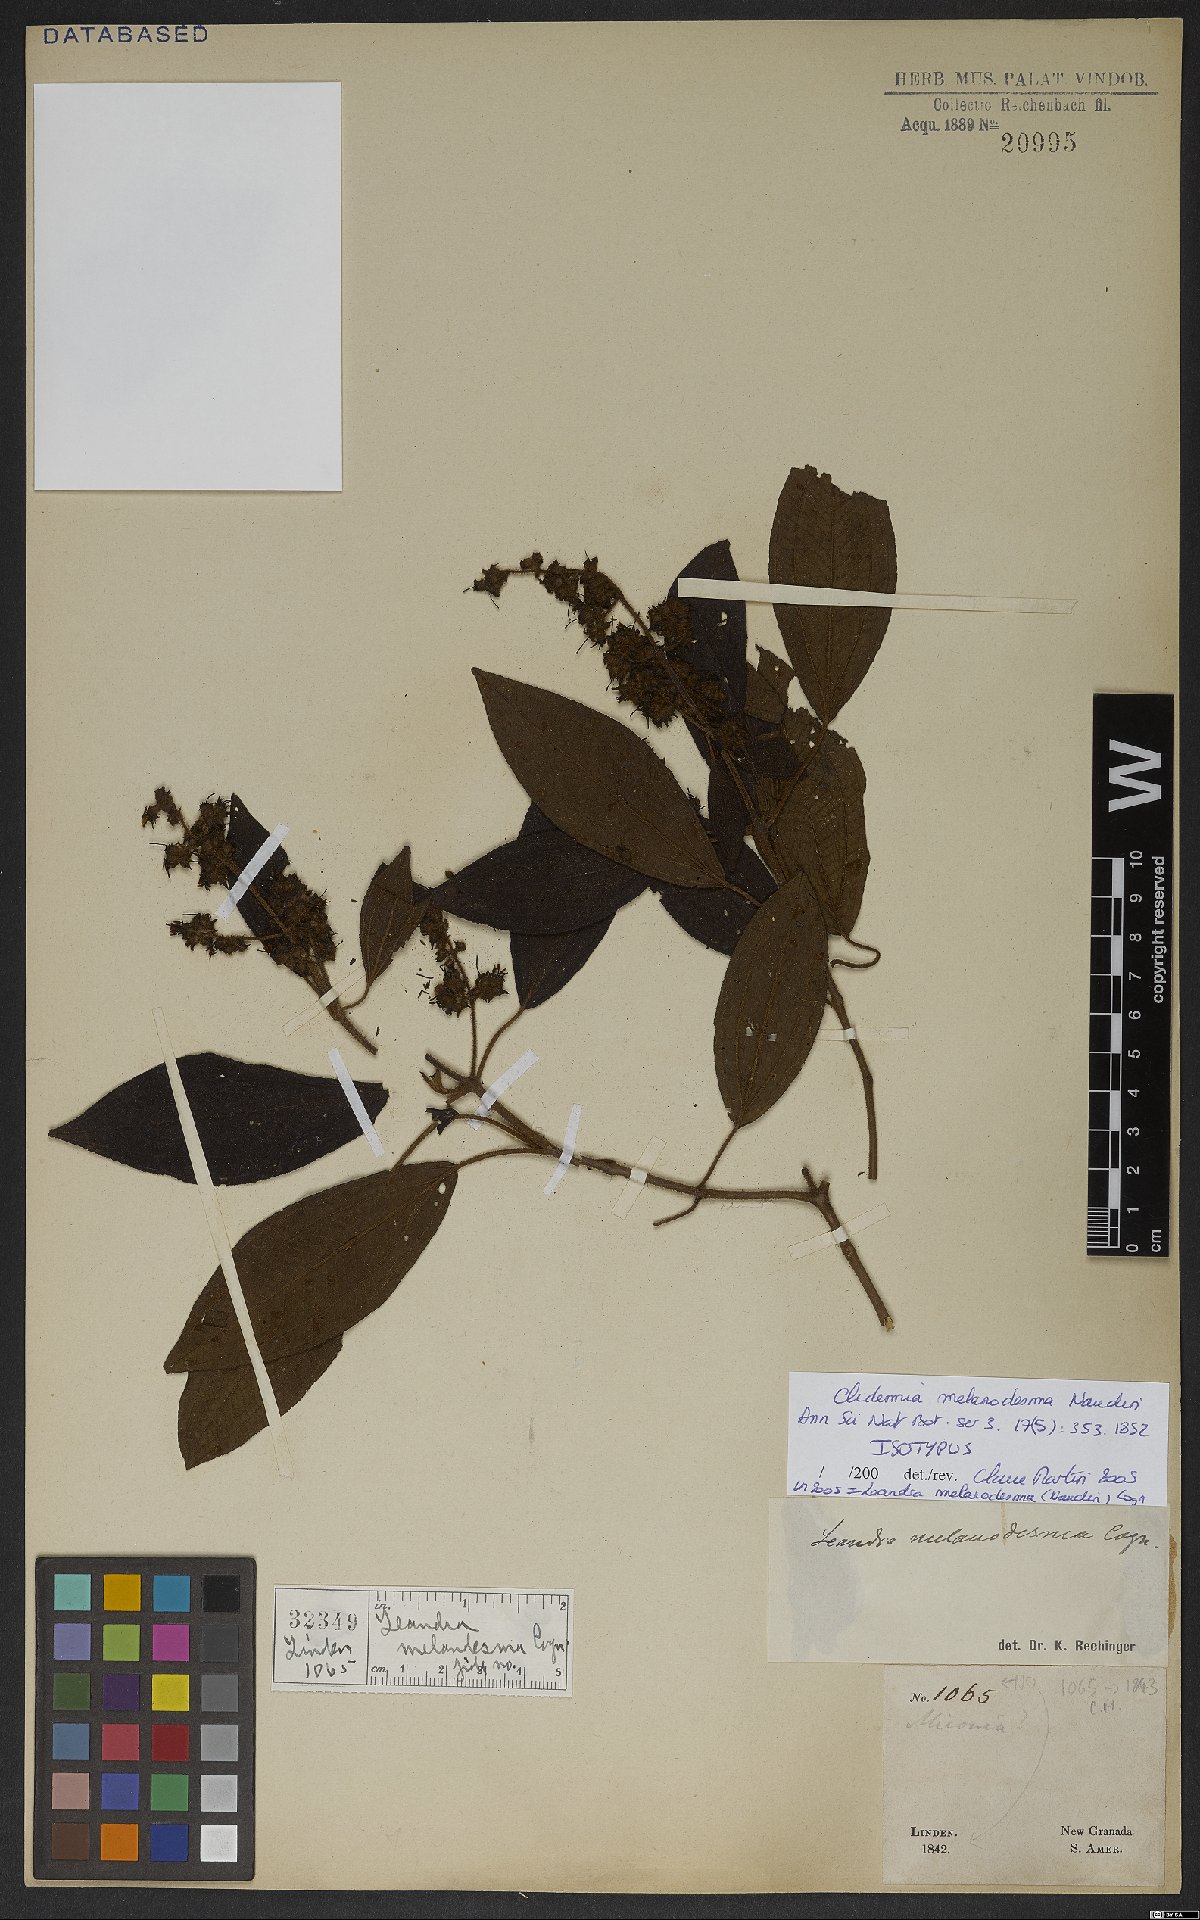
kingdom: Plantae
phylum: Tracheophyta
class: Magnoliopsida
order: Myrtales
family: Melastomataceae
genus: Miconia
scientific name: Miconia melanodesma
